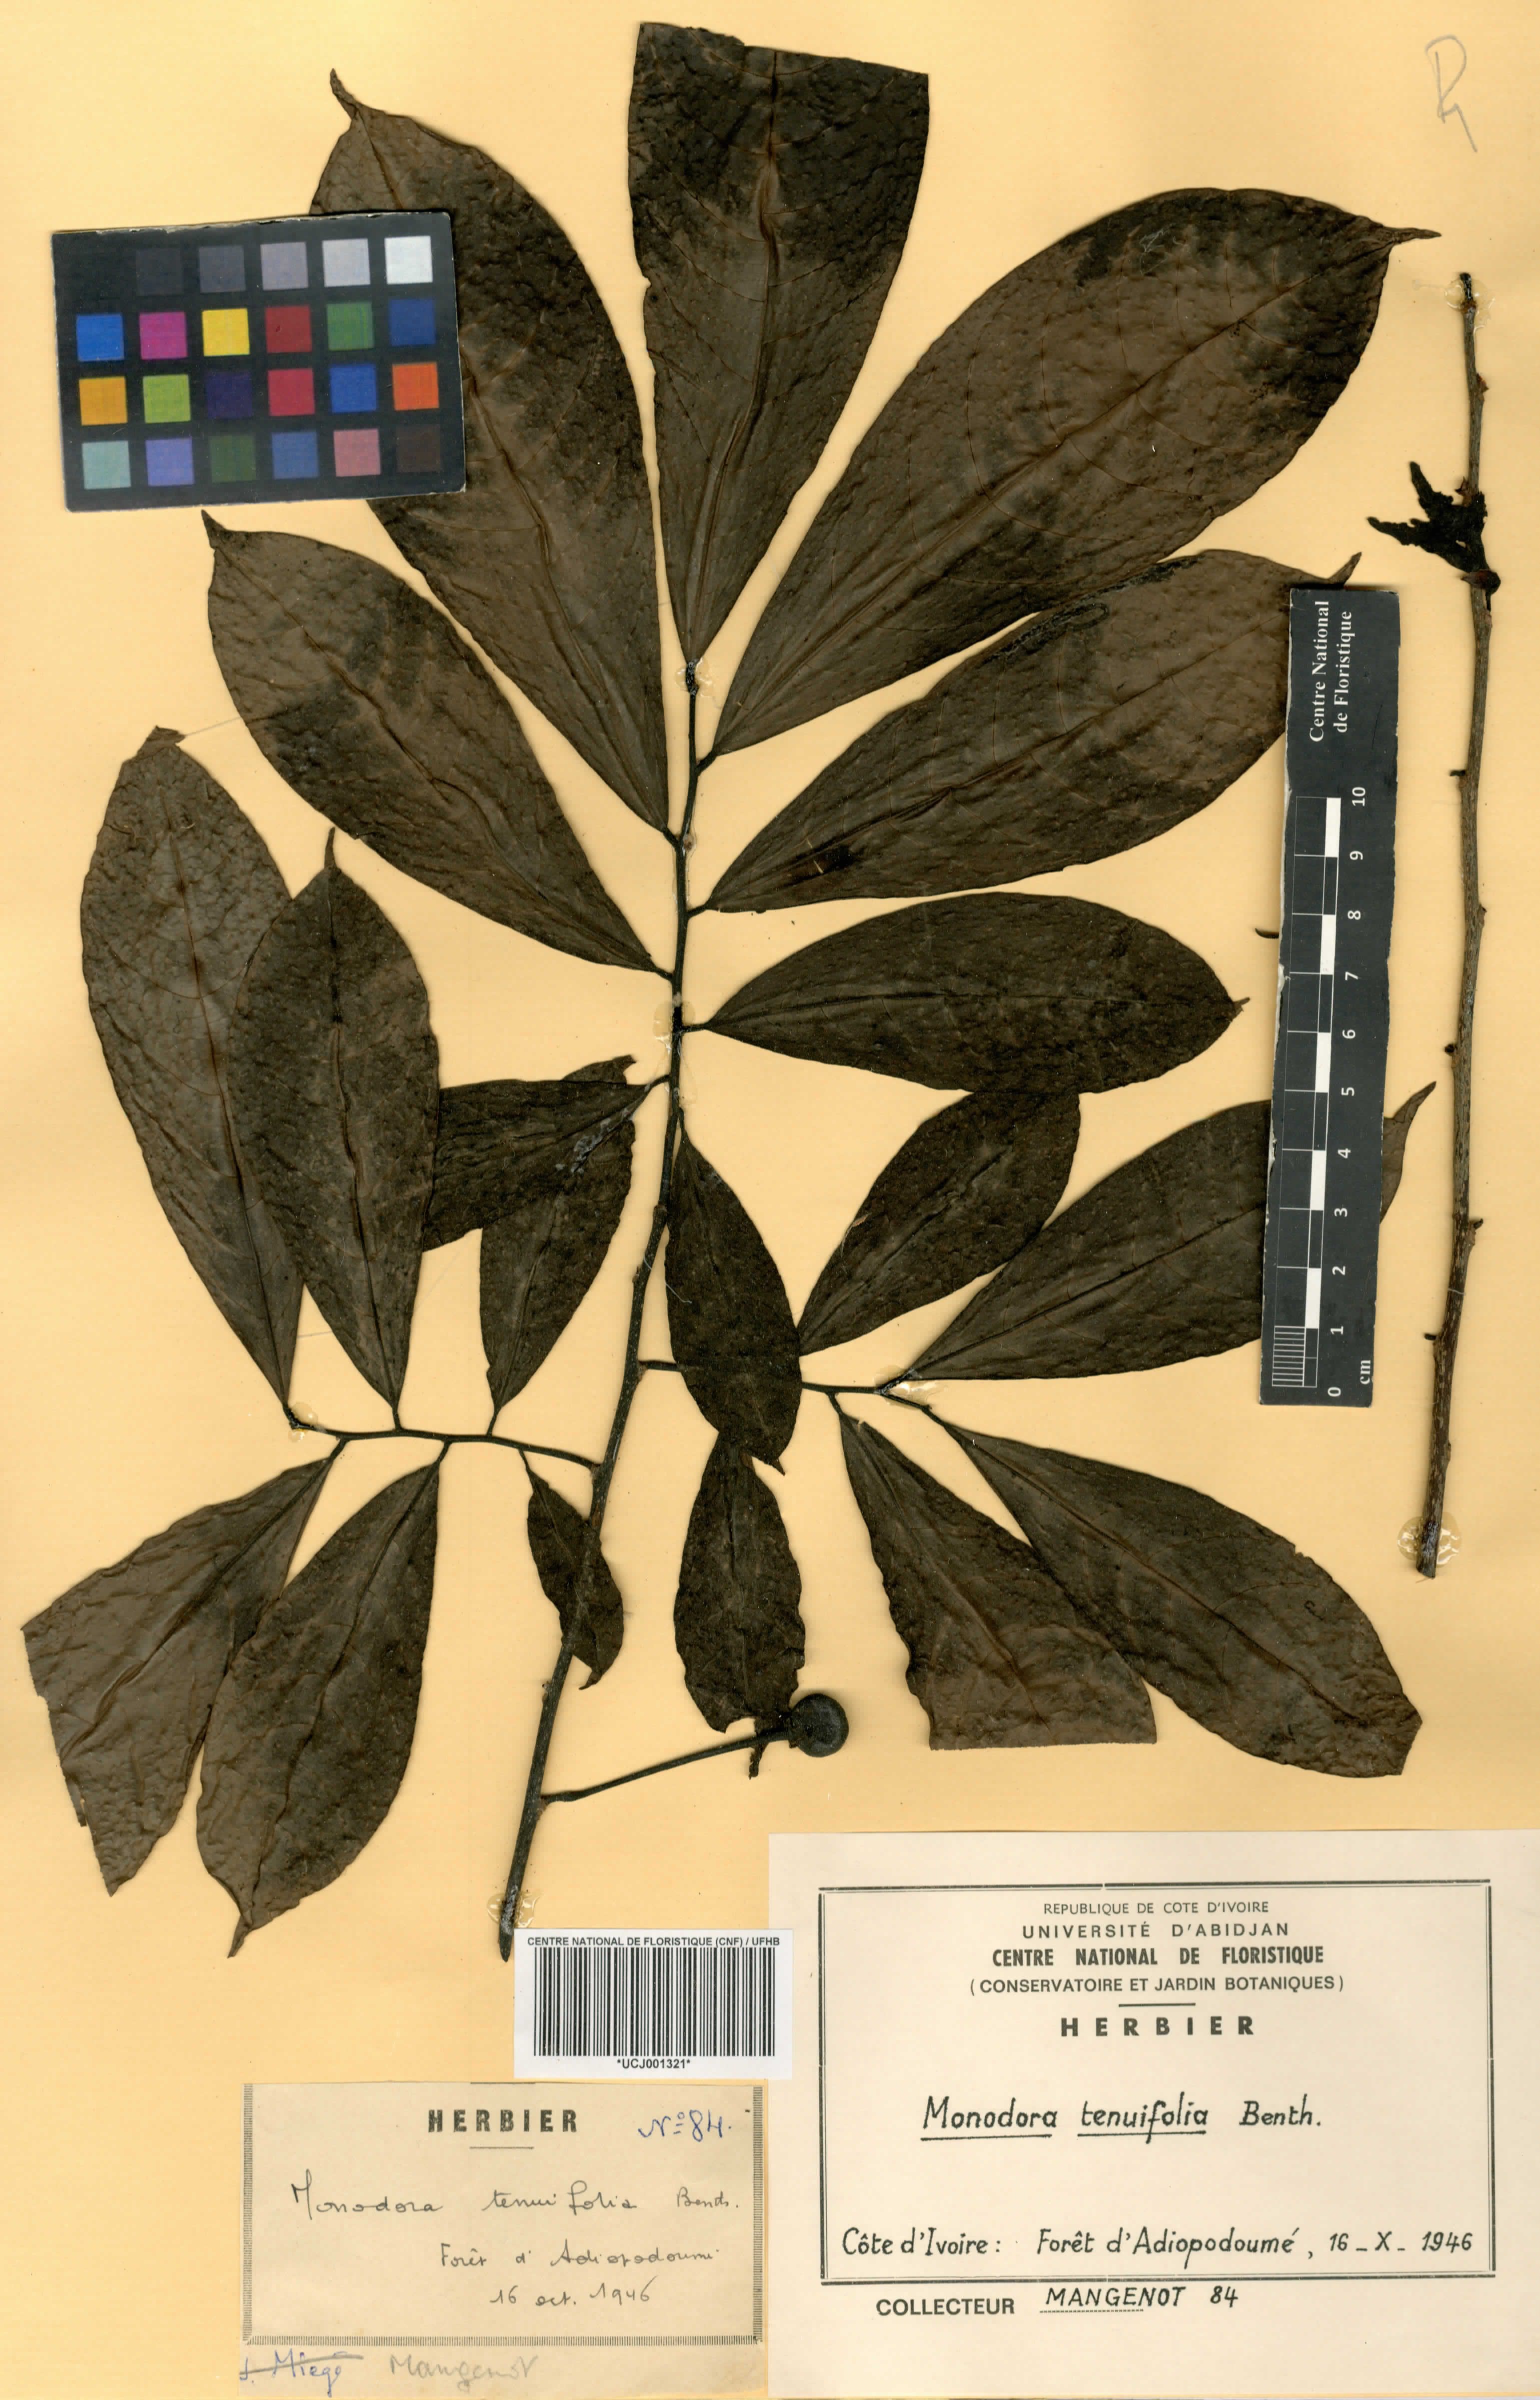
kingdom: Plantae
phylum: Tracheophyta
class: Magnoliopsida
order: Magnoliales
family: Annonaceae
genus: Monodora
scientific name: Monodora tenuifolia
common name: Orchidtree
